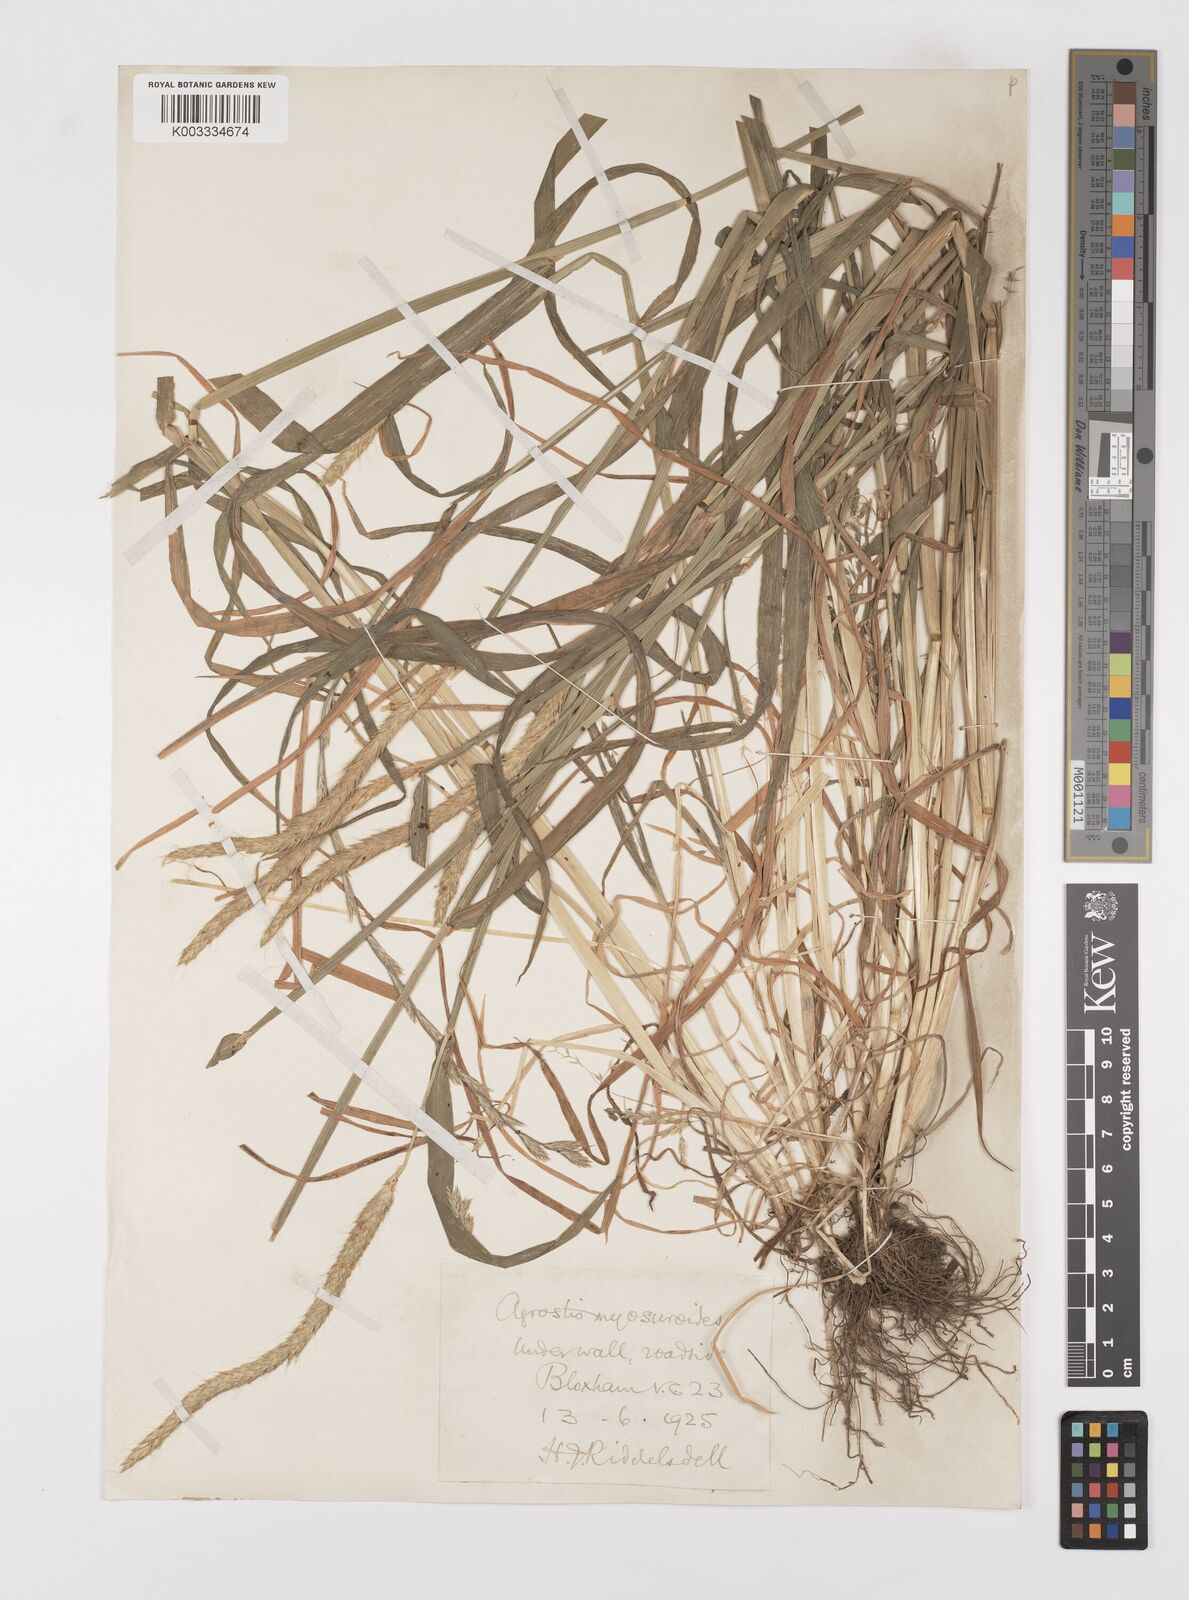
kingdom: Plantae
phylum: Tracheophyta
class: Liliopsida
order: Poales
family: Poaceae
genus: Alopecurus
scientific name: Alopecurus myosuroides
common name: Black-grass
